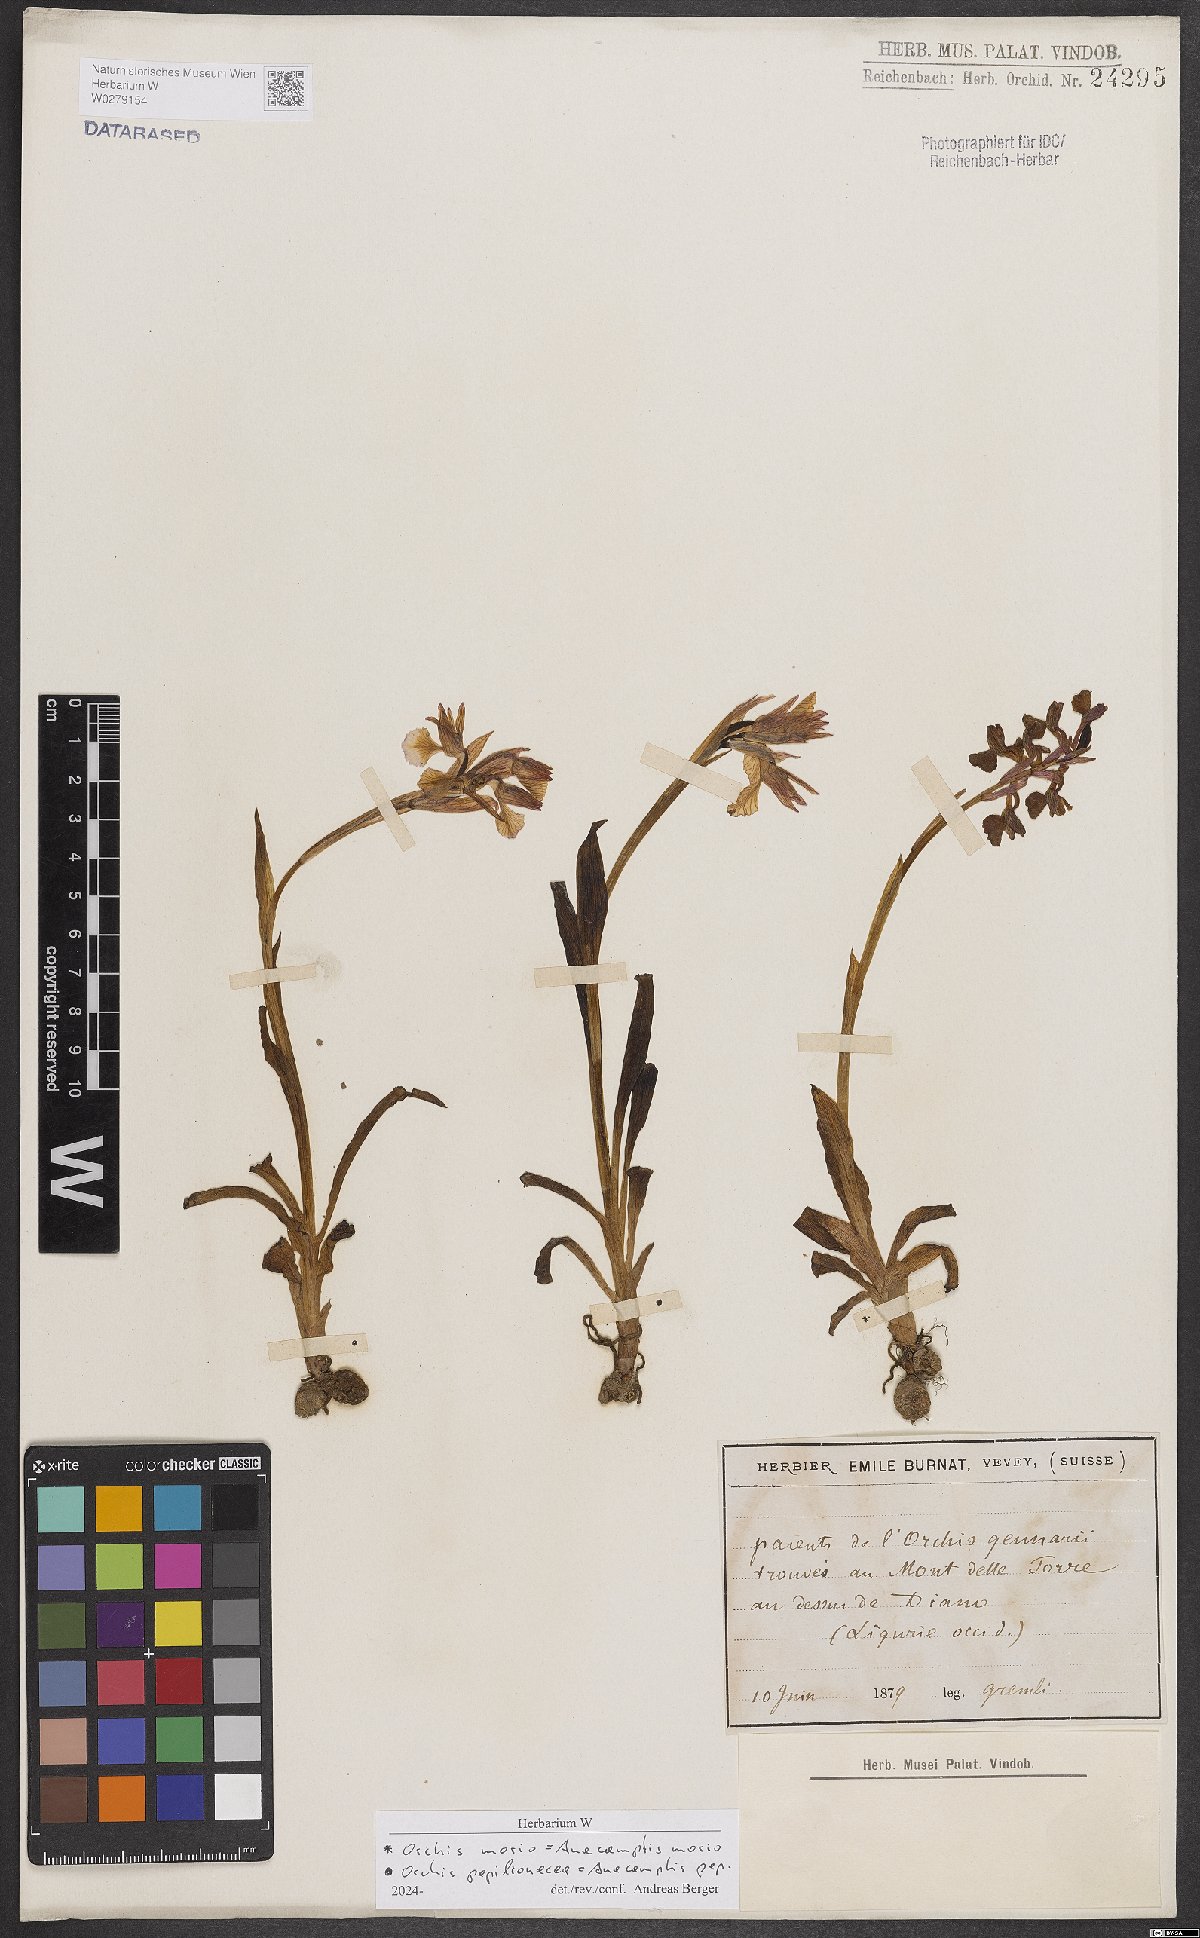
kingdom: Plantae
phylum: Tracheophyta
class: Liliopsida
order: Asparagales
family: Orchidaceae
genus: Anacamptis
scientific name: Anacamptis nicodemi
